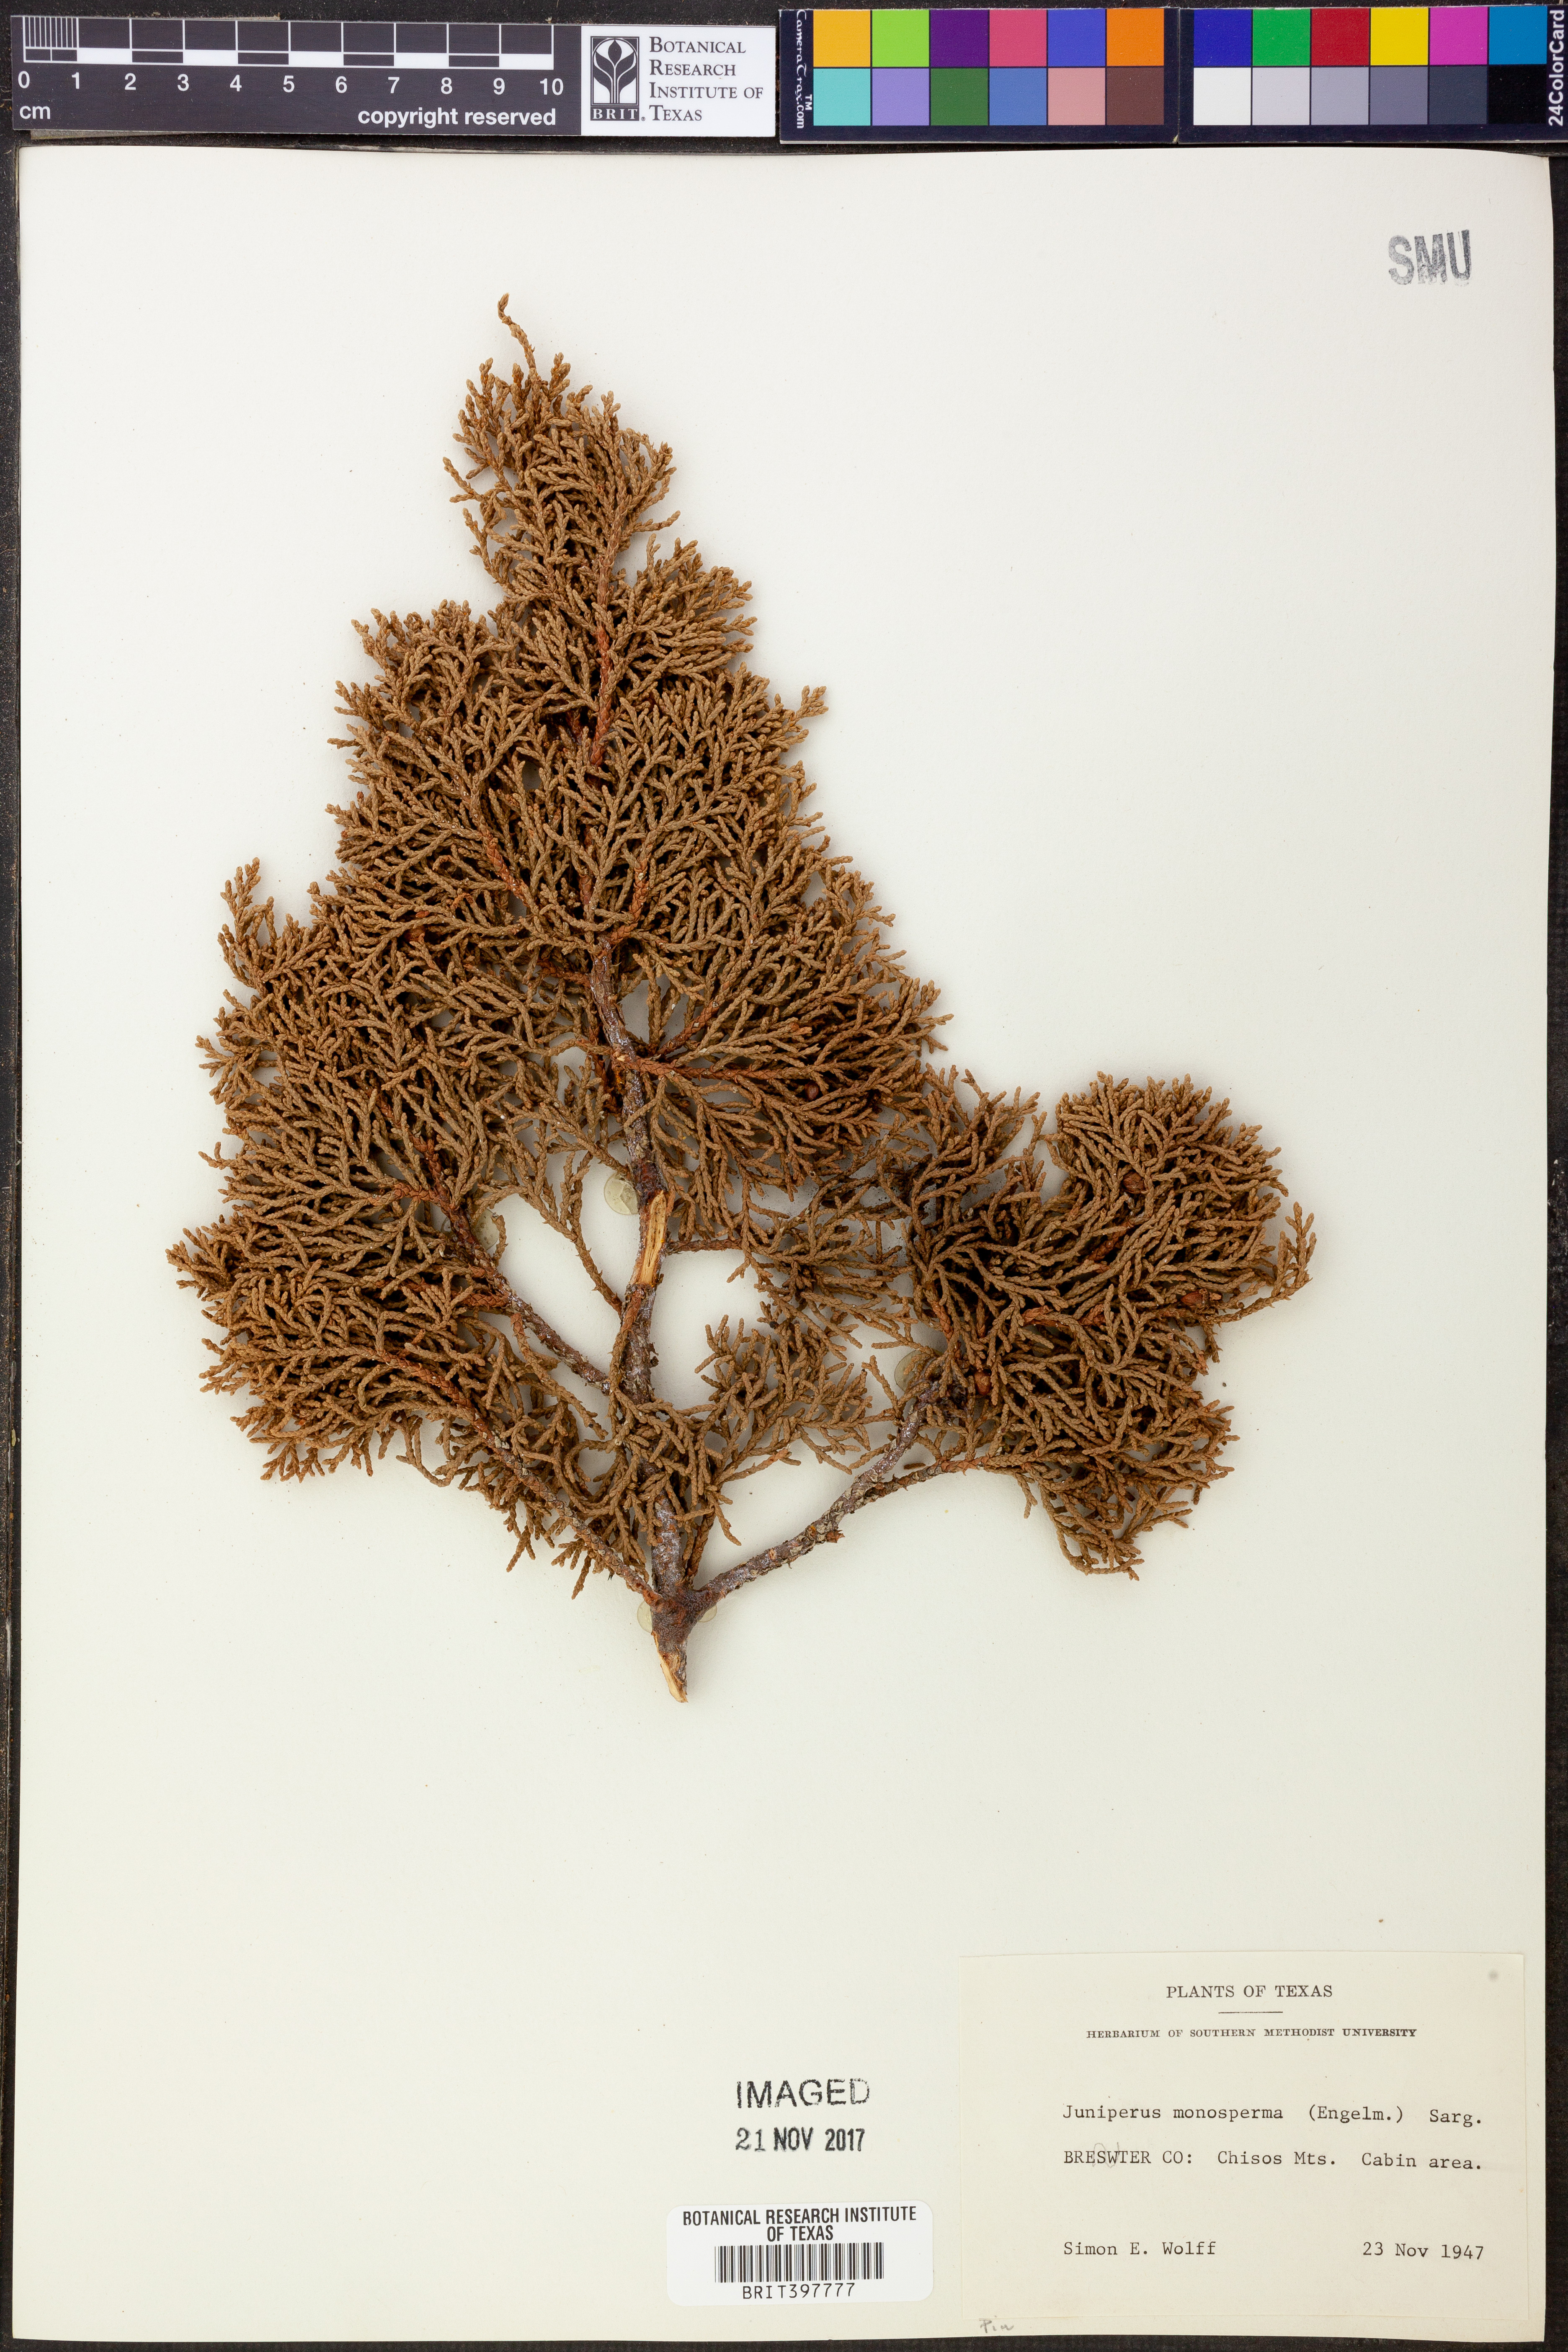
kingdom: Plantae
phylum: Tracheophyta
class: Pinopsida
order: Pinales
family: Cupressaceae
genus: Juniperus
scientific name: Juniperus monosperma
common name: One-seed juniper
